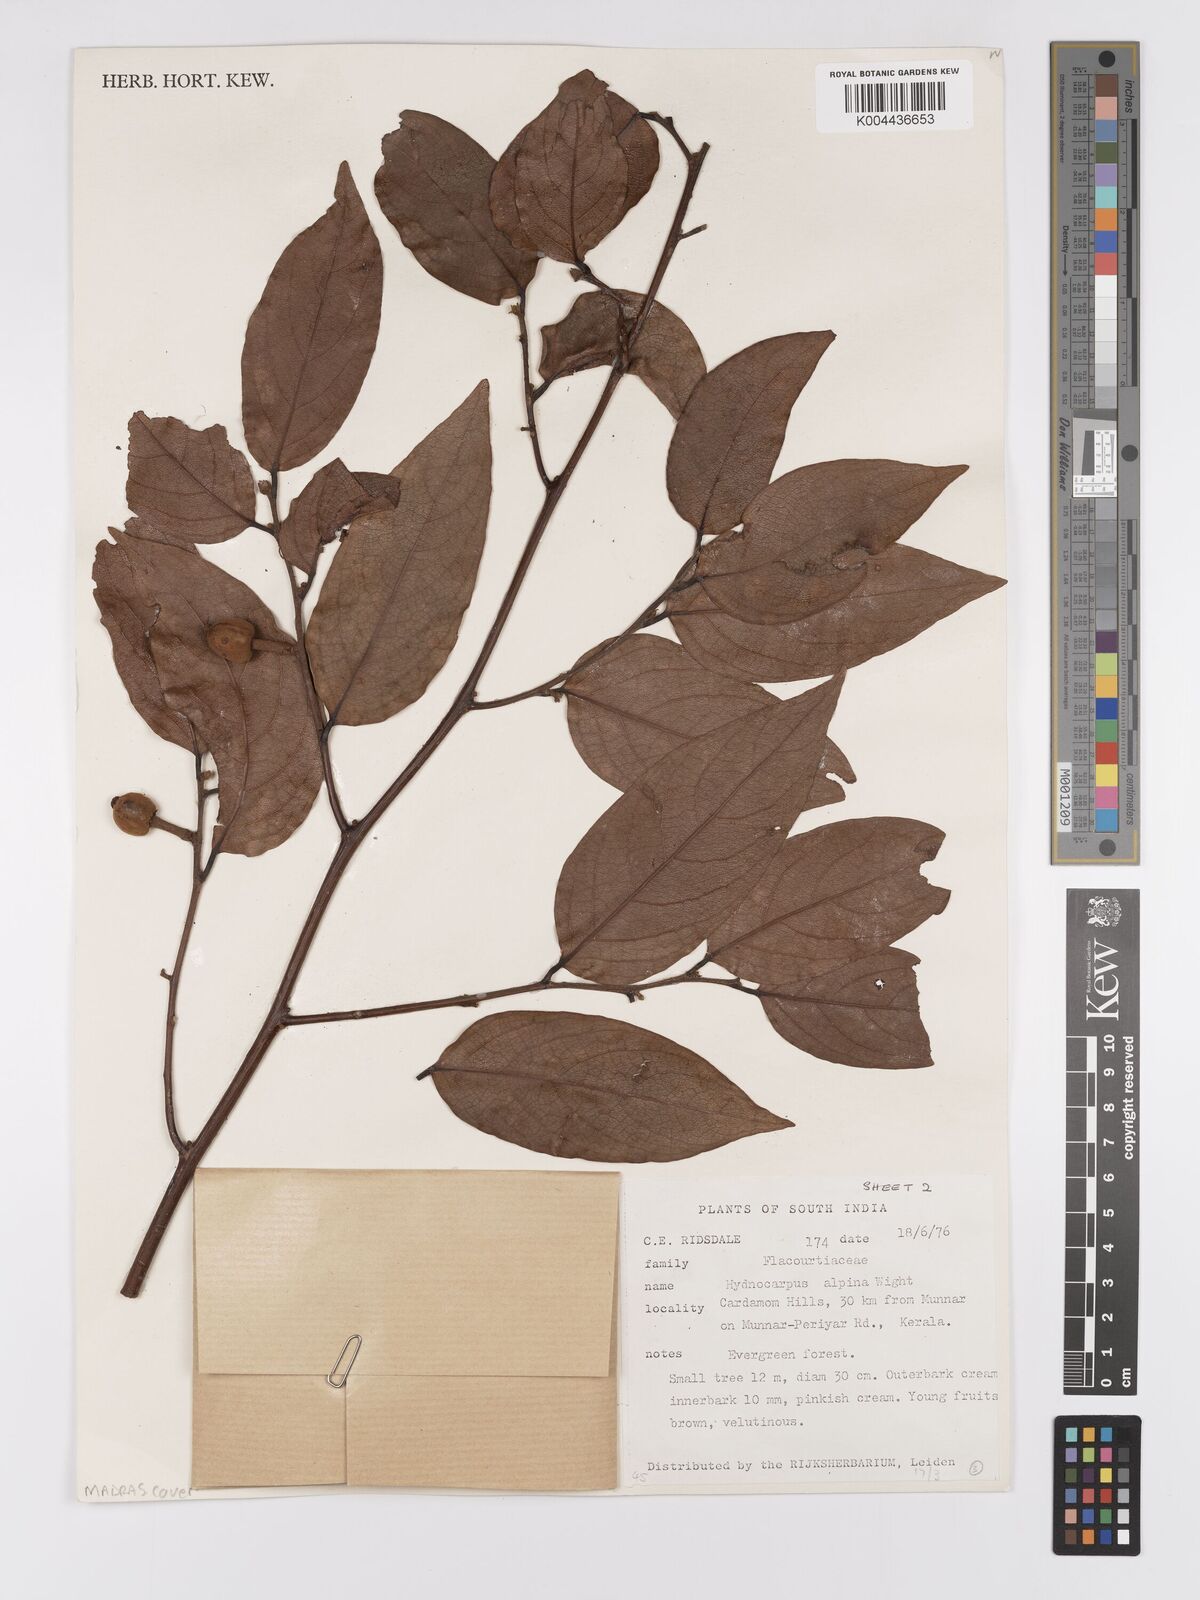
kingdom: Plantae
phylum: Tracheophyta
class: Magnoliopsida
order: Malpighiales
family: Achariaceae
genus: Hydnocarpus
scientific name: Hydnocarpus alpinus
